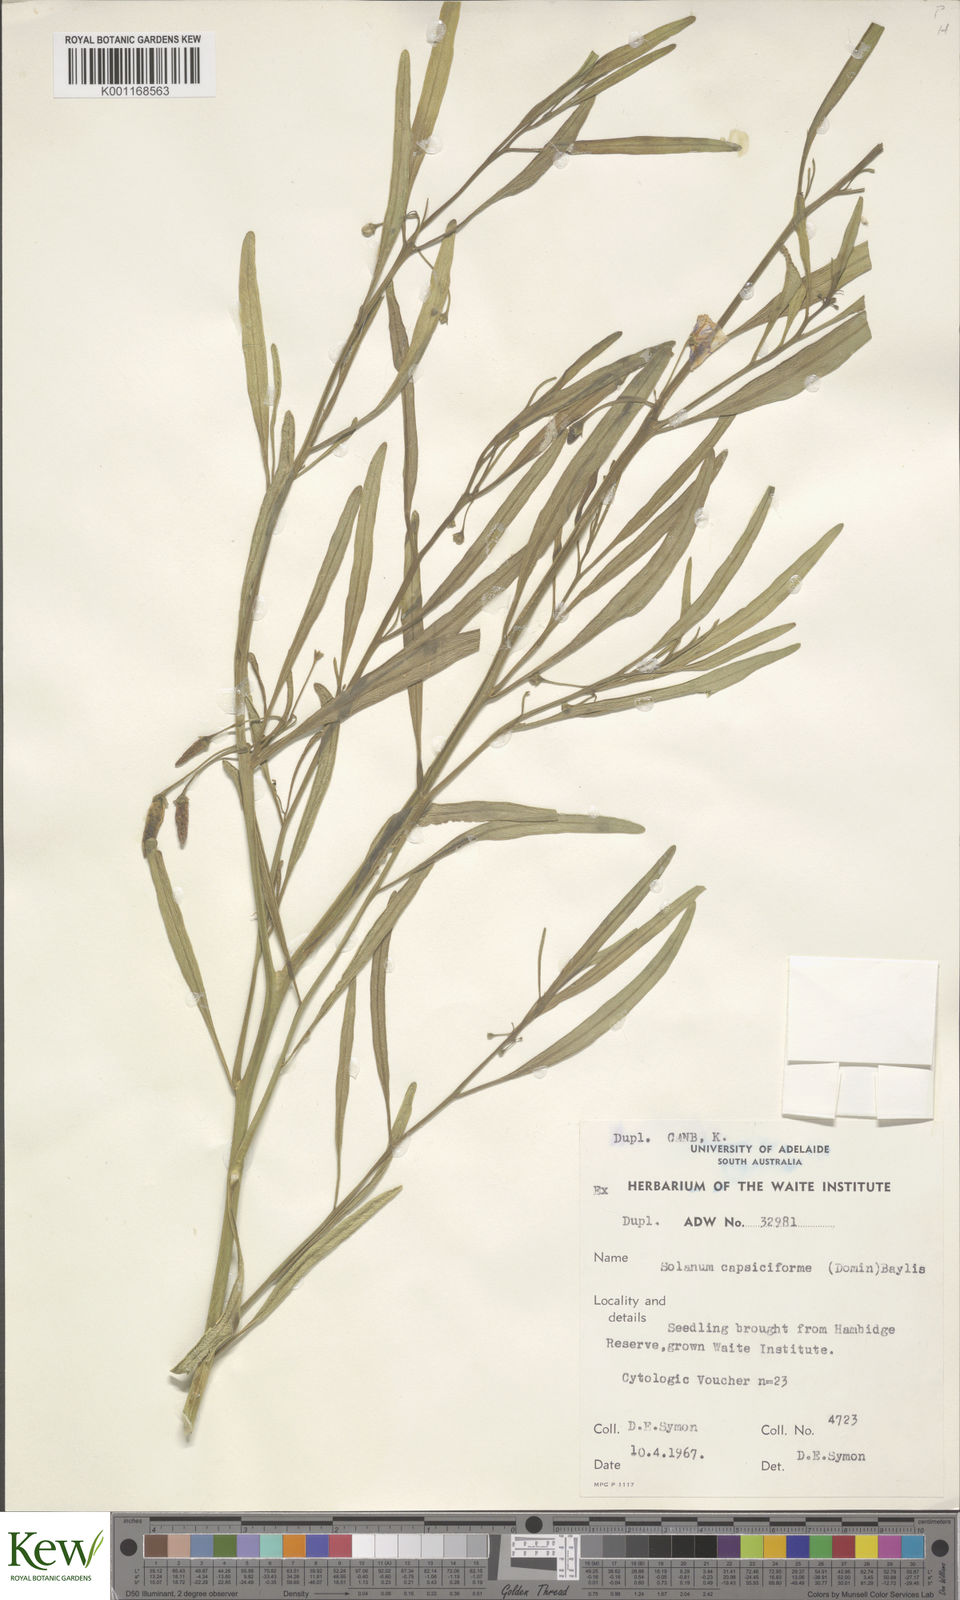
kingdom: Plantae
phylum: Tracheophyta
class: Magnoliopsida
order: Solanales
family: Solanaceae
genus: Solanum
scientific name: Solanum
